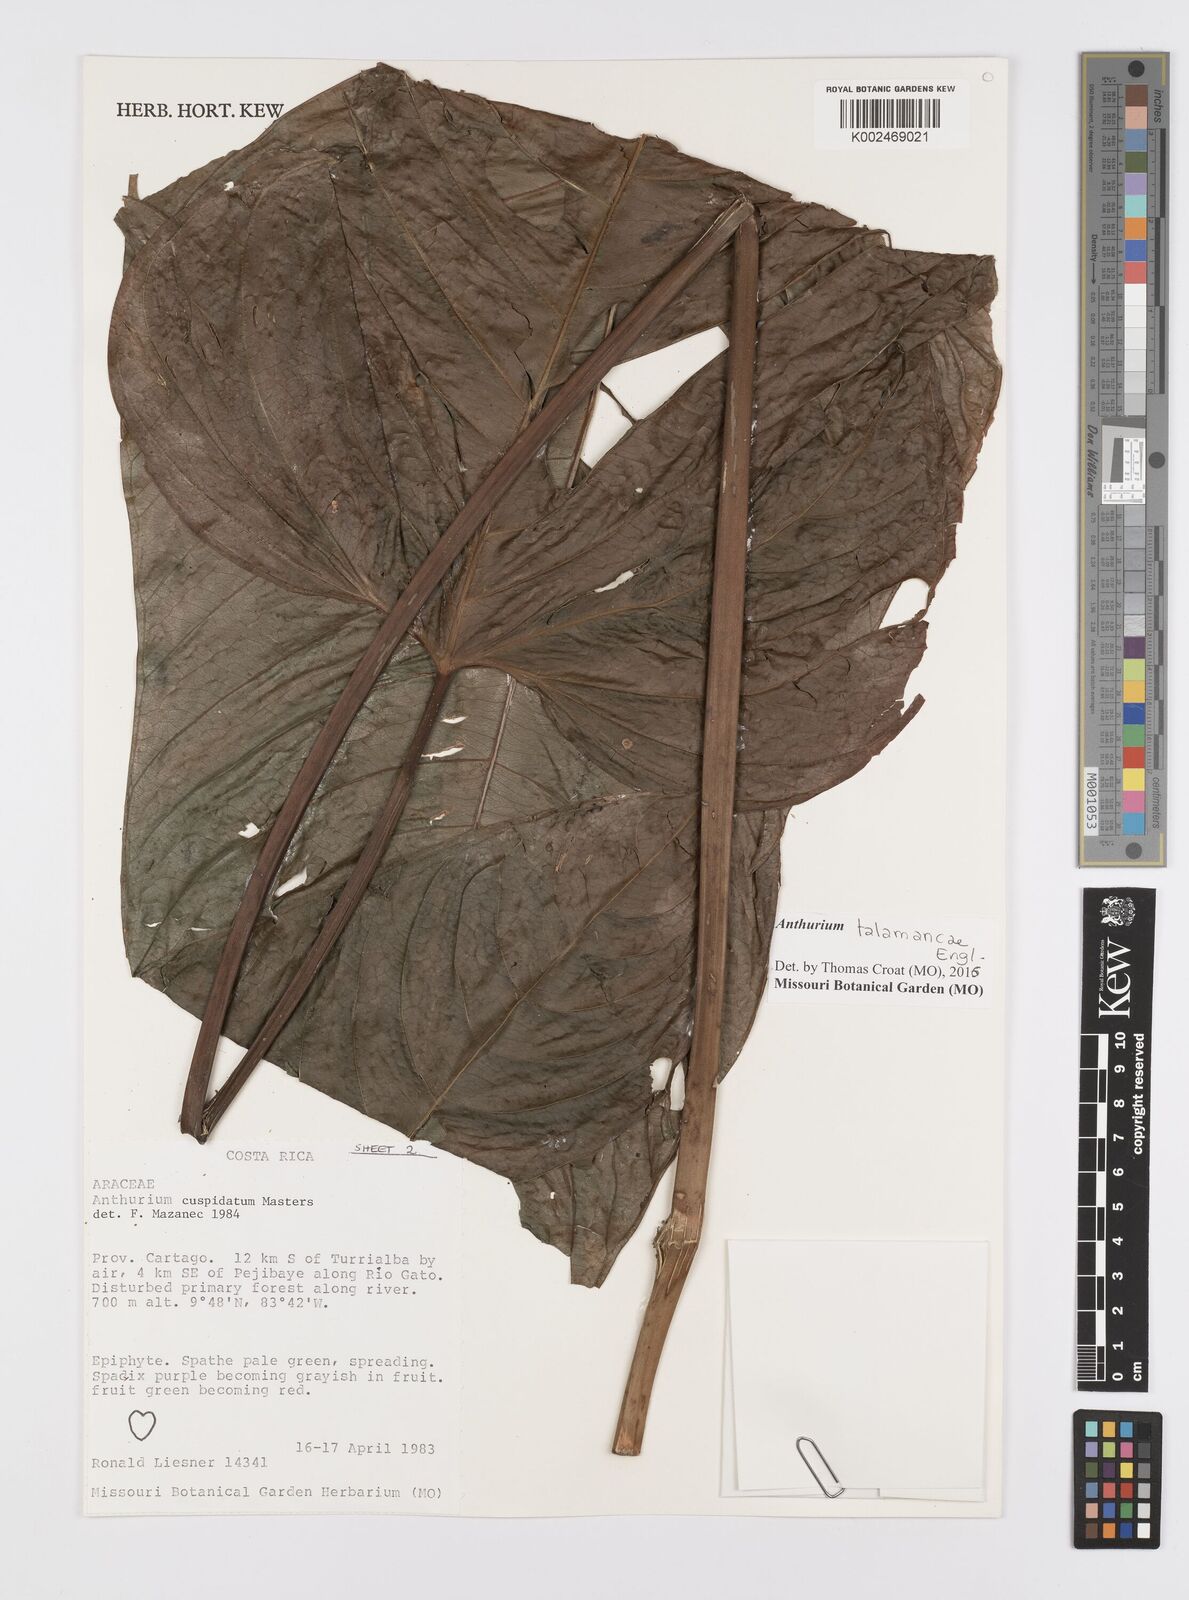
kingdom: Plantae
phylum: Tracheophyta
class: Liliopsida
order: Alismatales
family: Araceae
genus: Anthurium
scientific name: Anthurium cuspidatum
